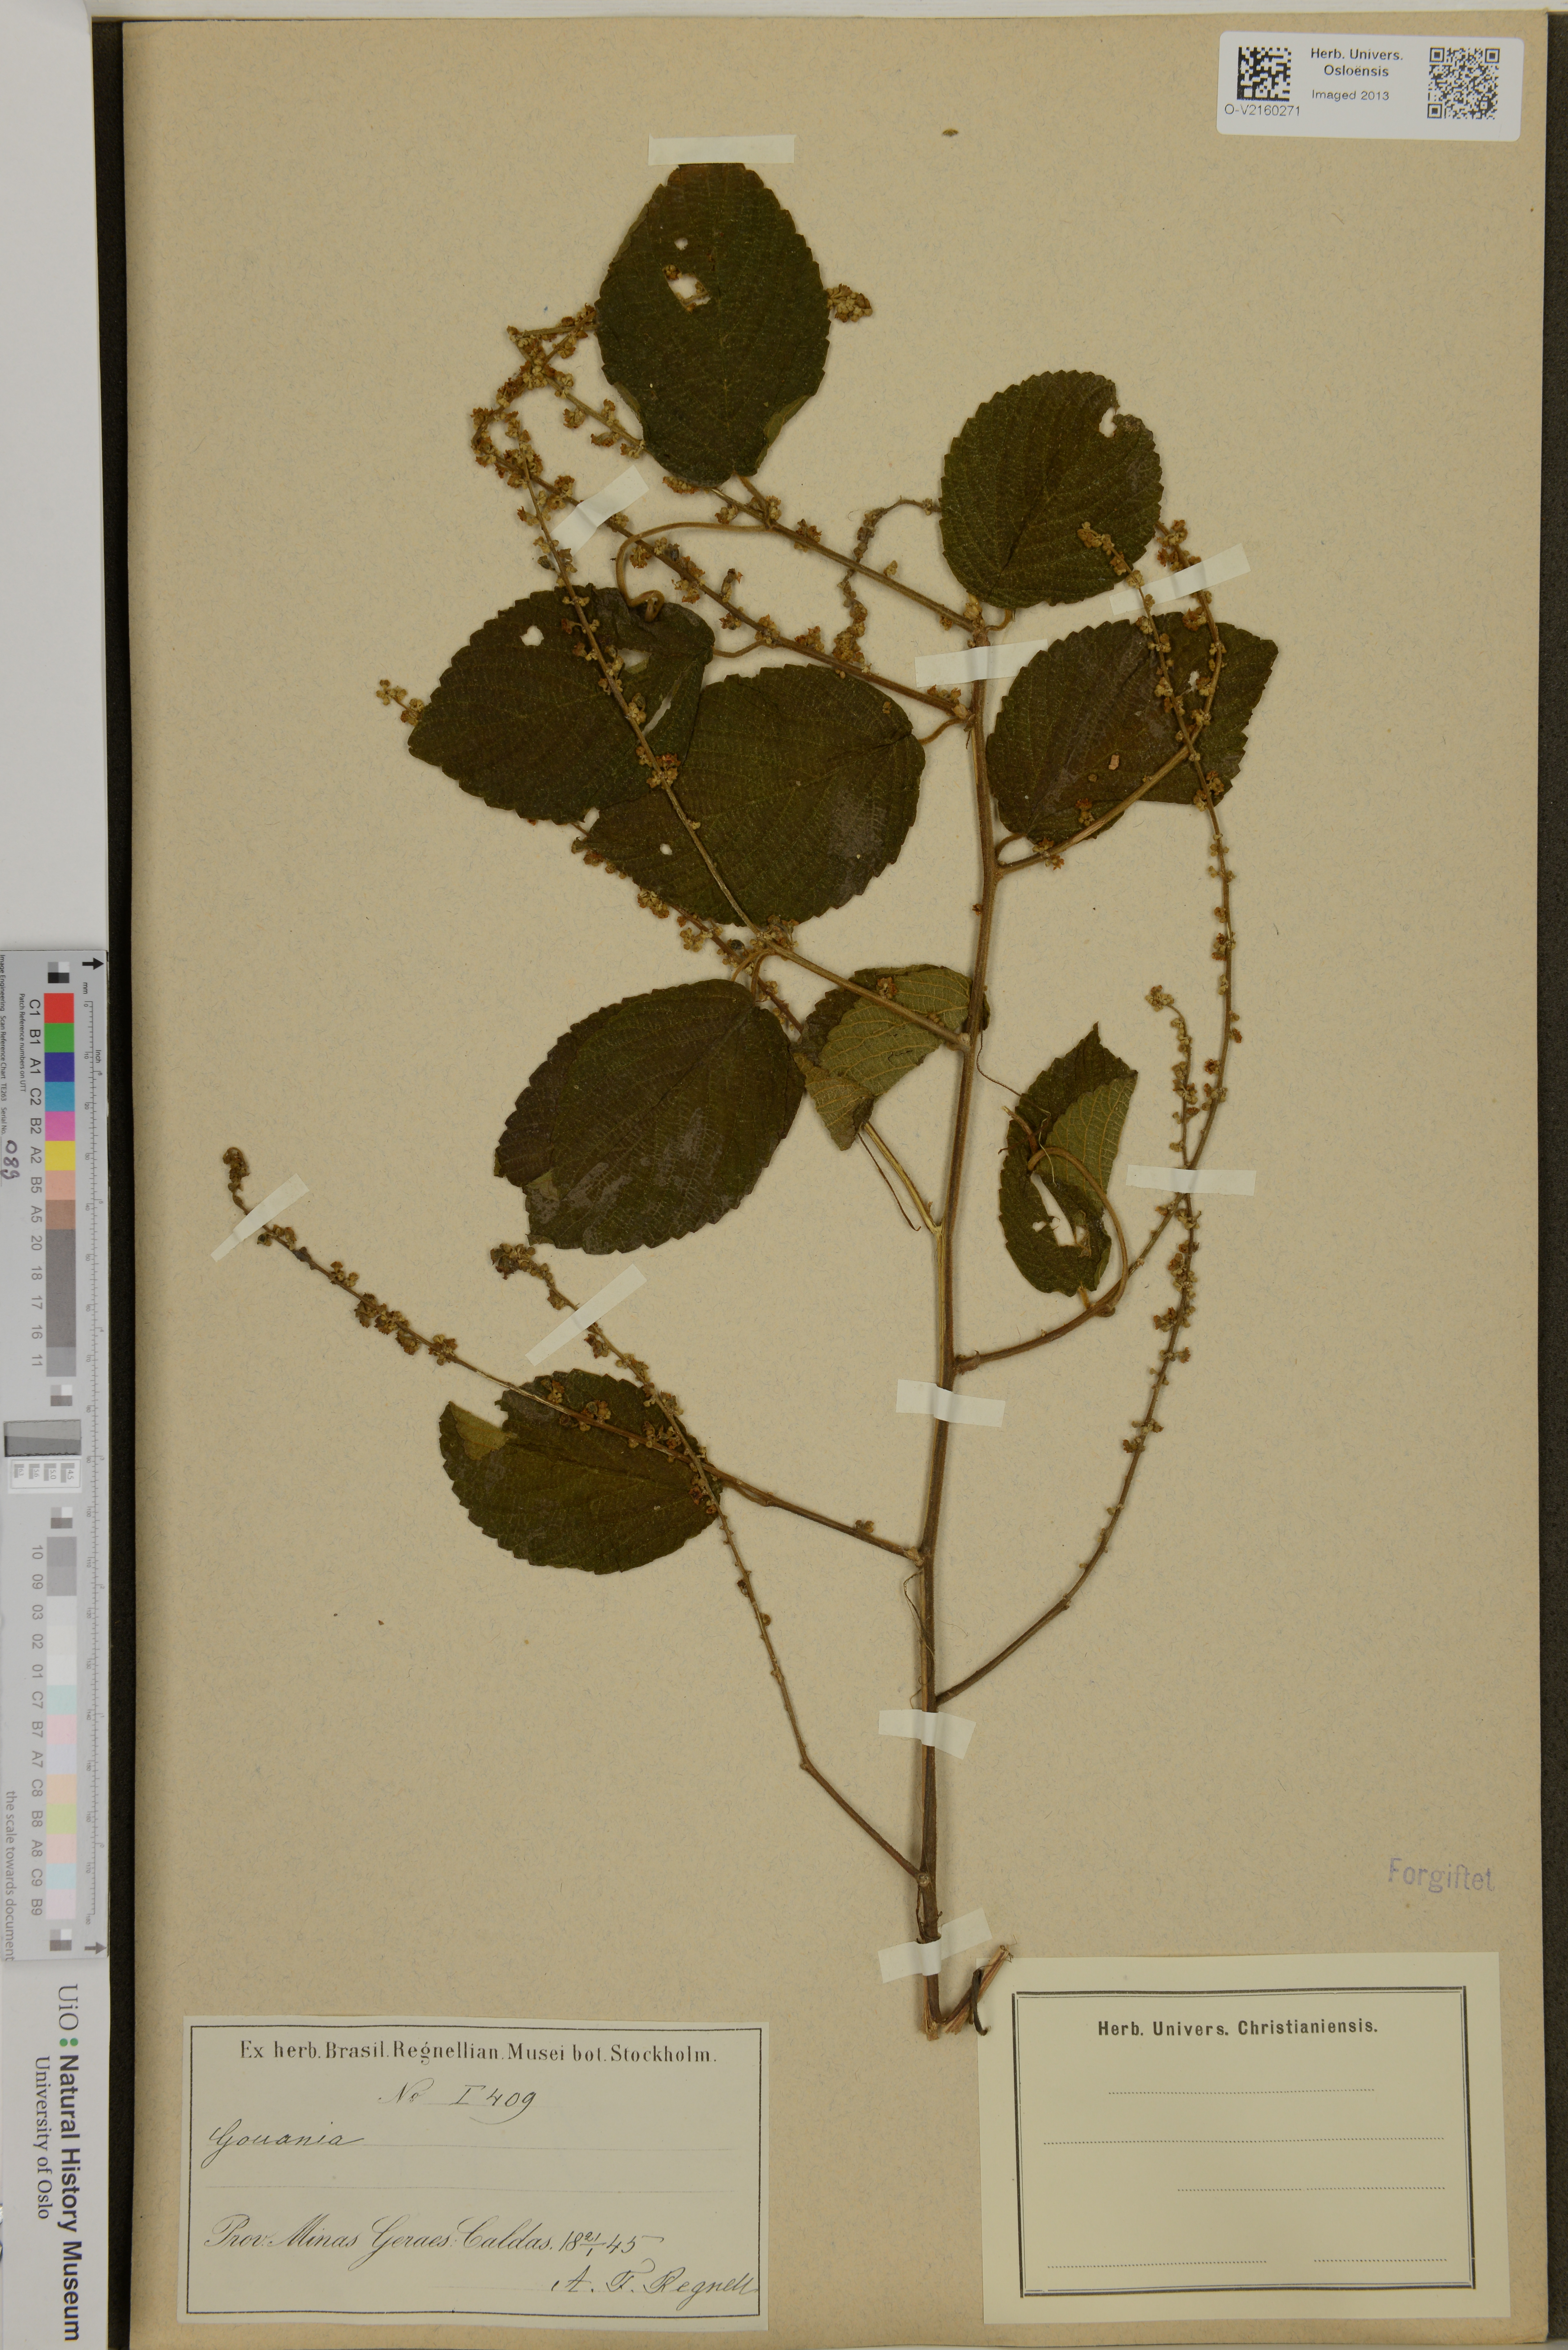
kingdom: Plantae
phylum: Tracheophyta
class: Magnoliopsida
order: Rosales
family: Rhamnaceae
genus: Gouania
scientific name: Gouania
